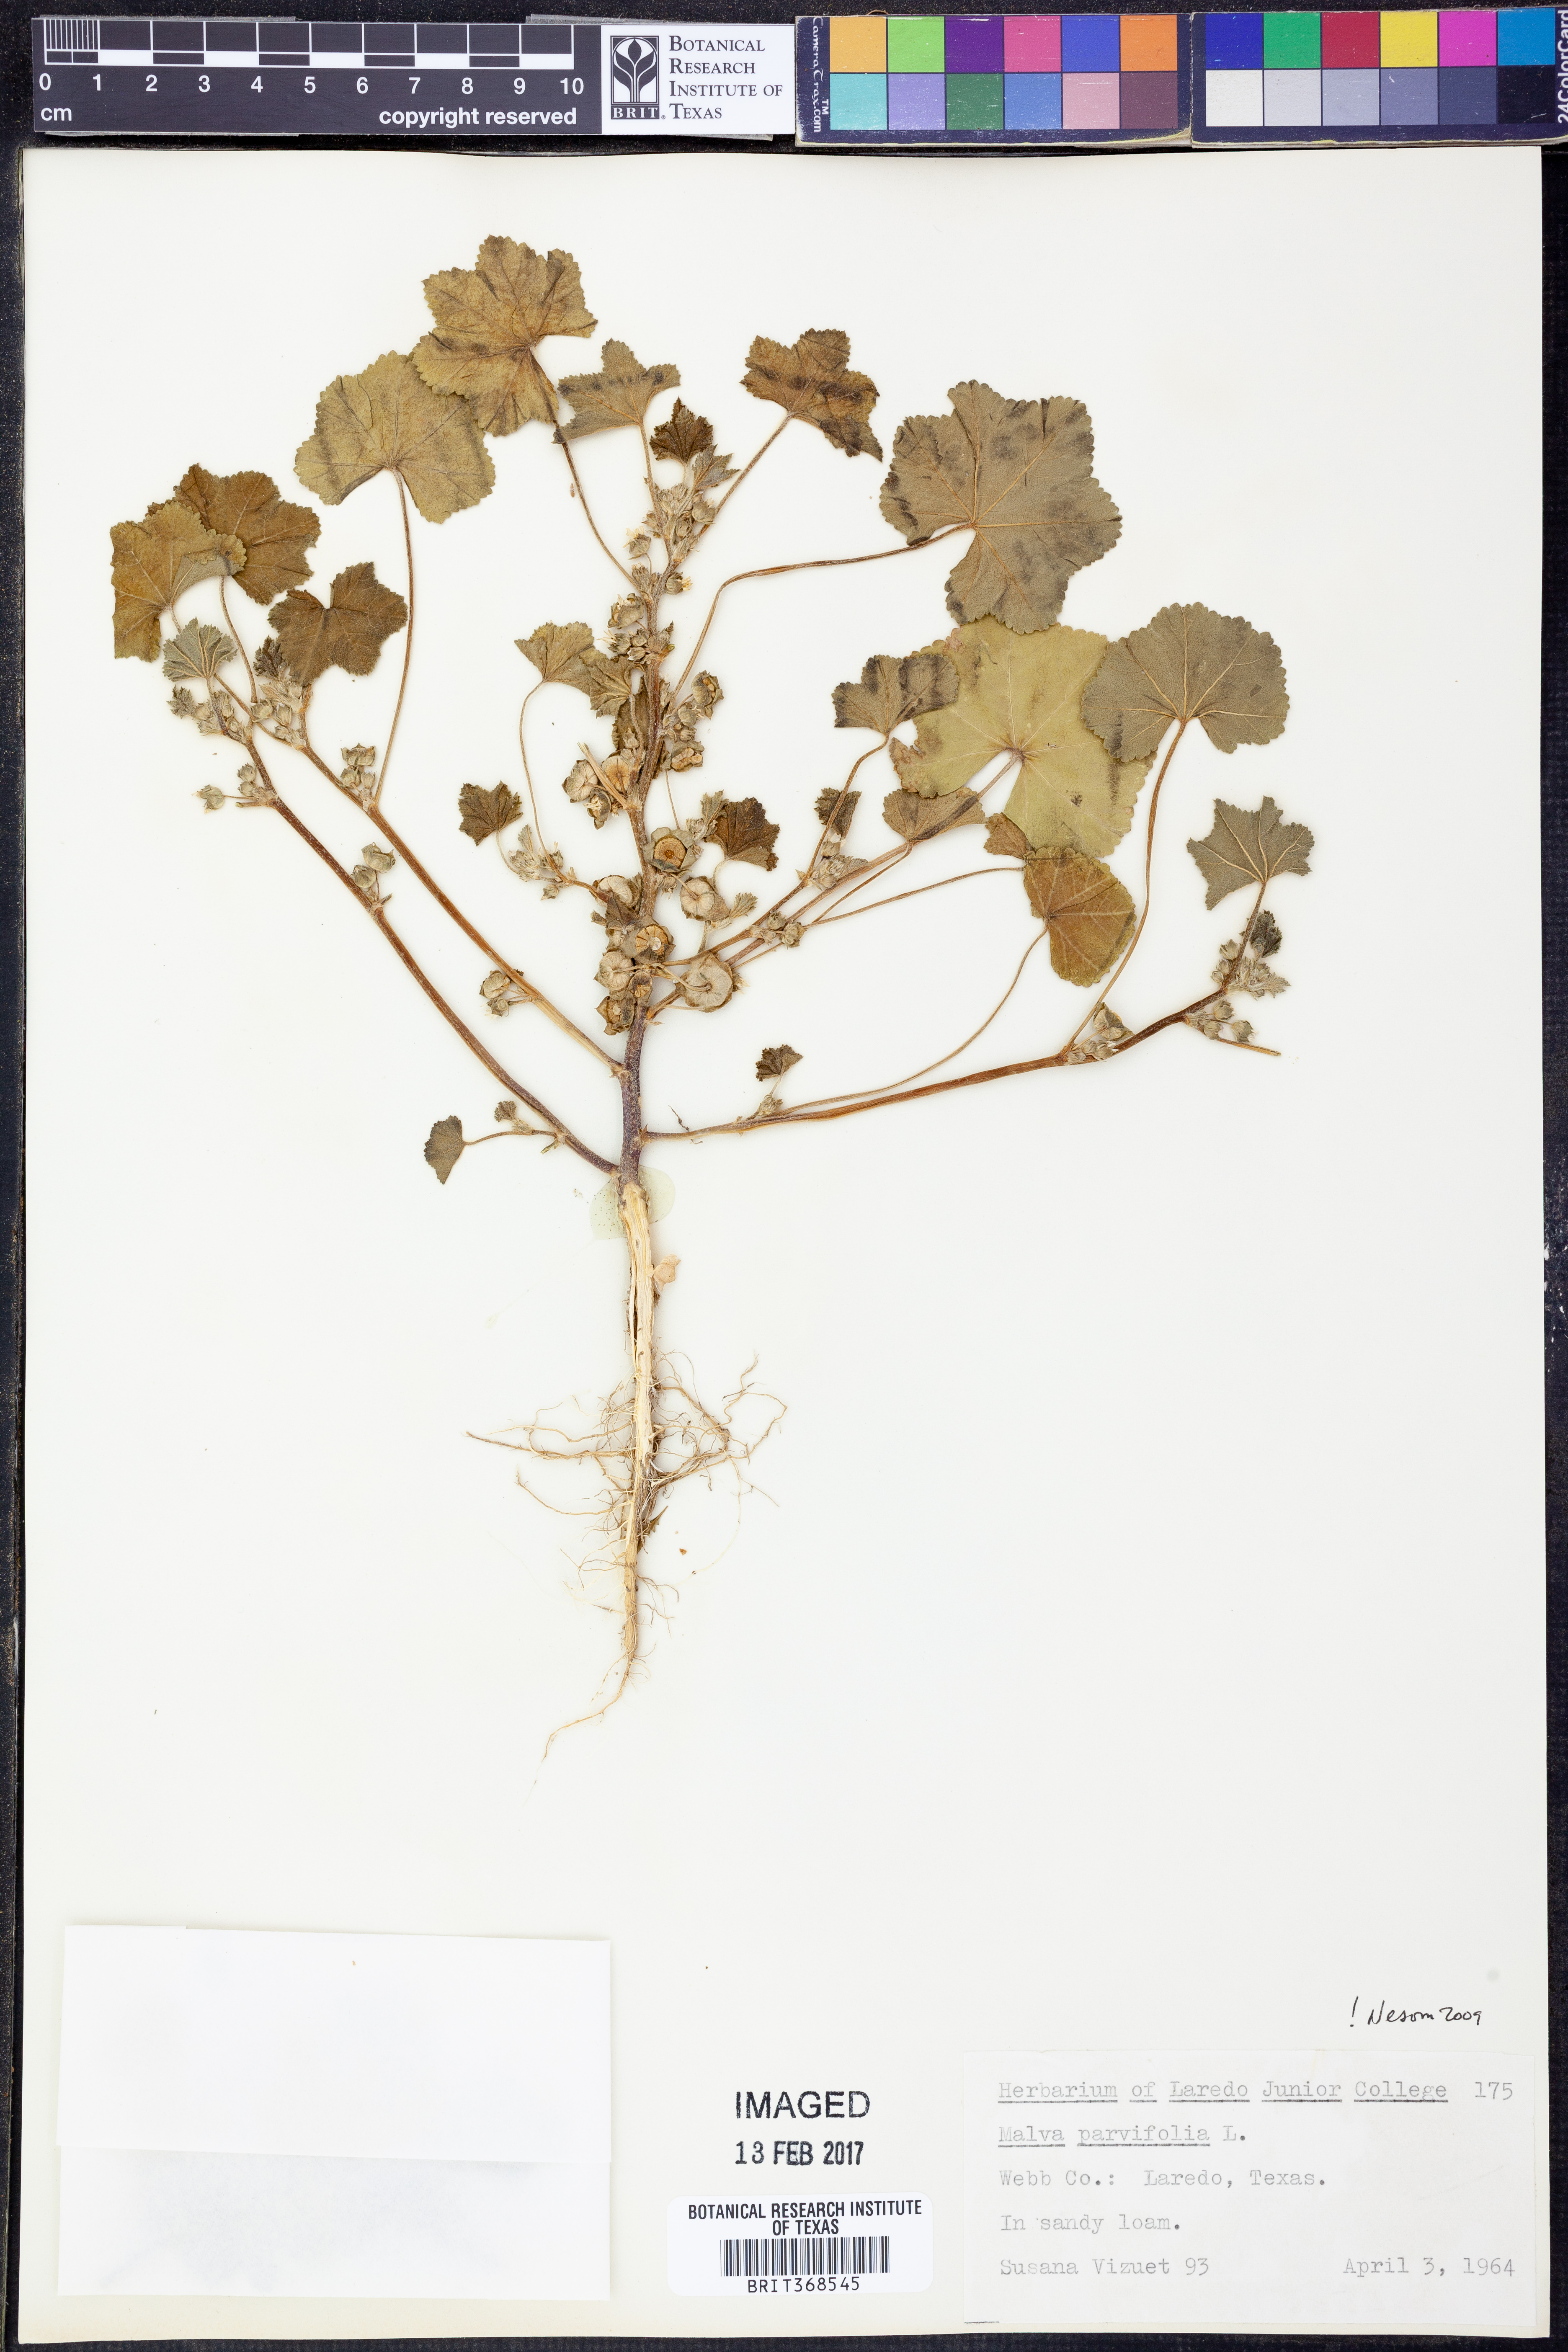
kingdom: Plantae
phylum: Tracheophyta
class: Magnoliopsida
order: Malvales
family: Malvaceae
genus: Malva
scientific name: Malva parviflora
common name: Least mallow
